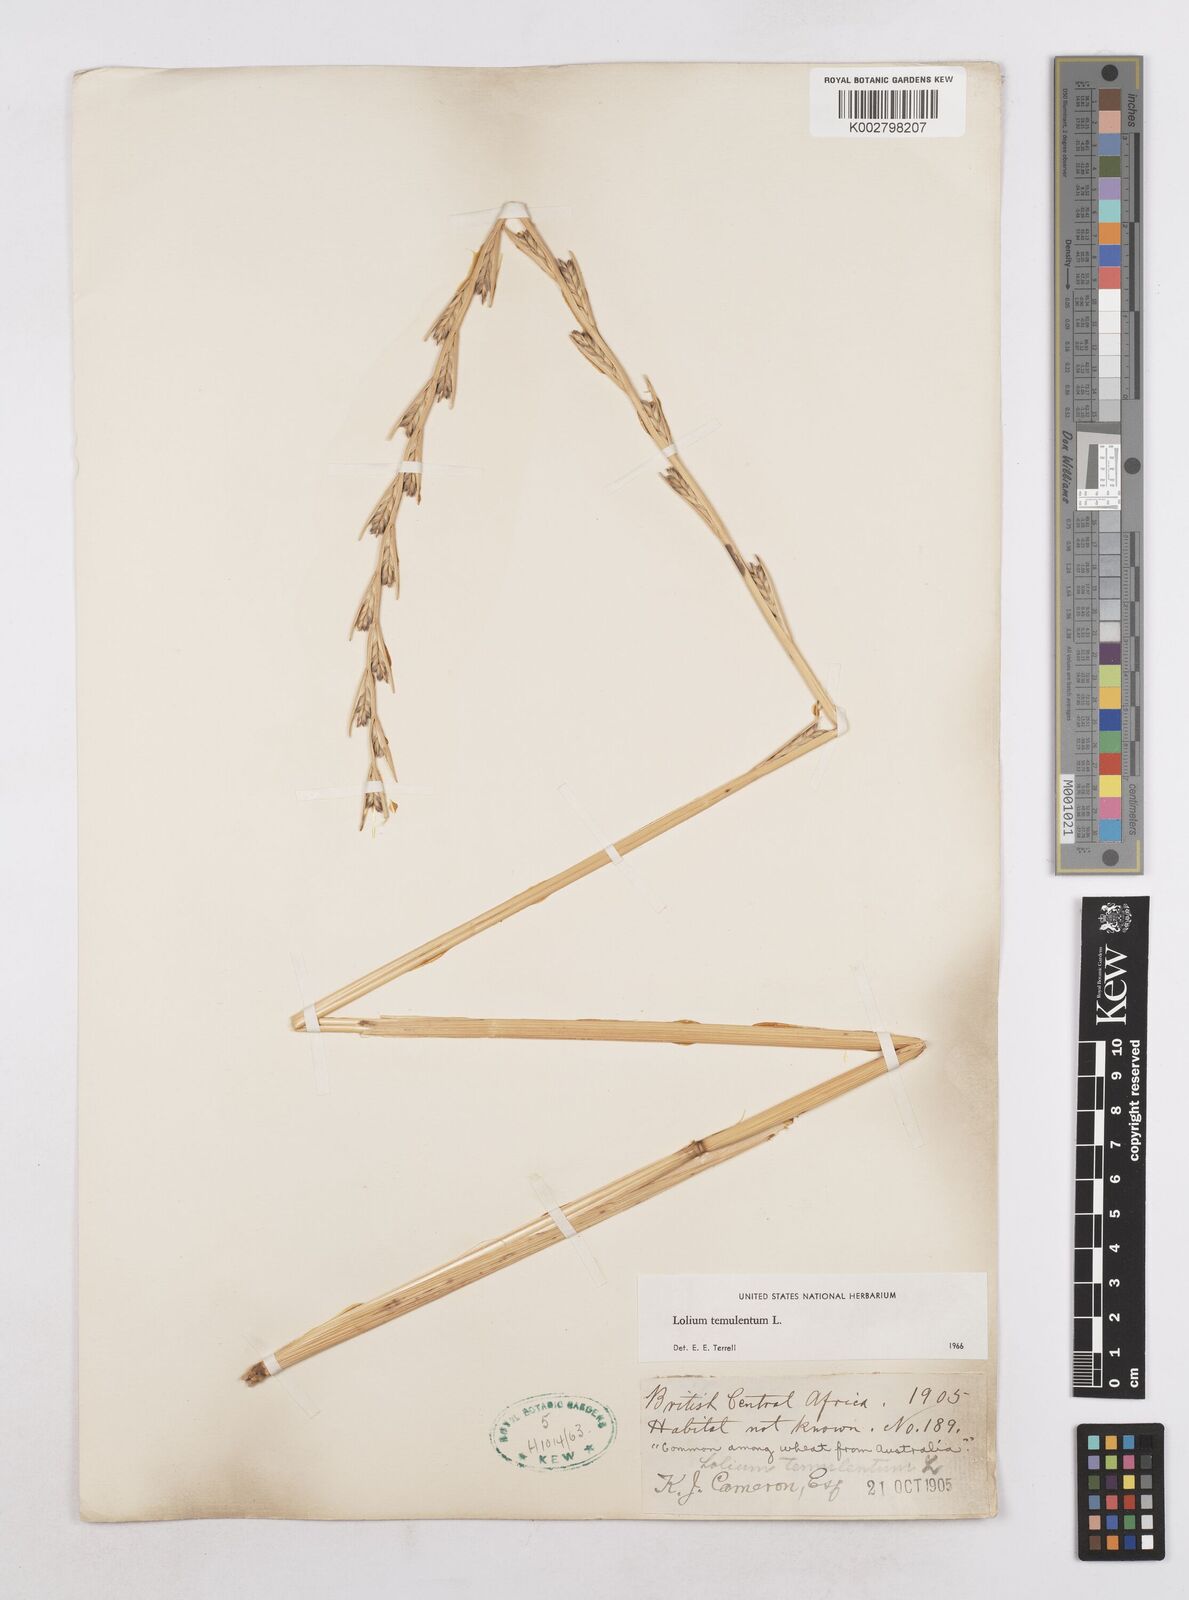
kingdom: Plantae
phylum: Tracheophyta
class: Liliopsida
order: Poales
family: Poaceae
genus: Lolium
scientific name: Lolium temulentum
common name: Darnel
